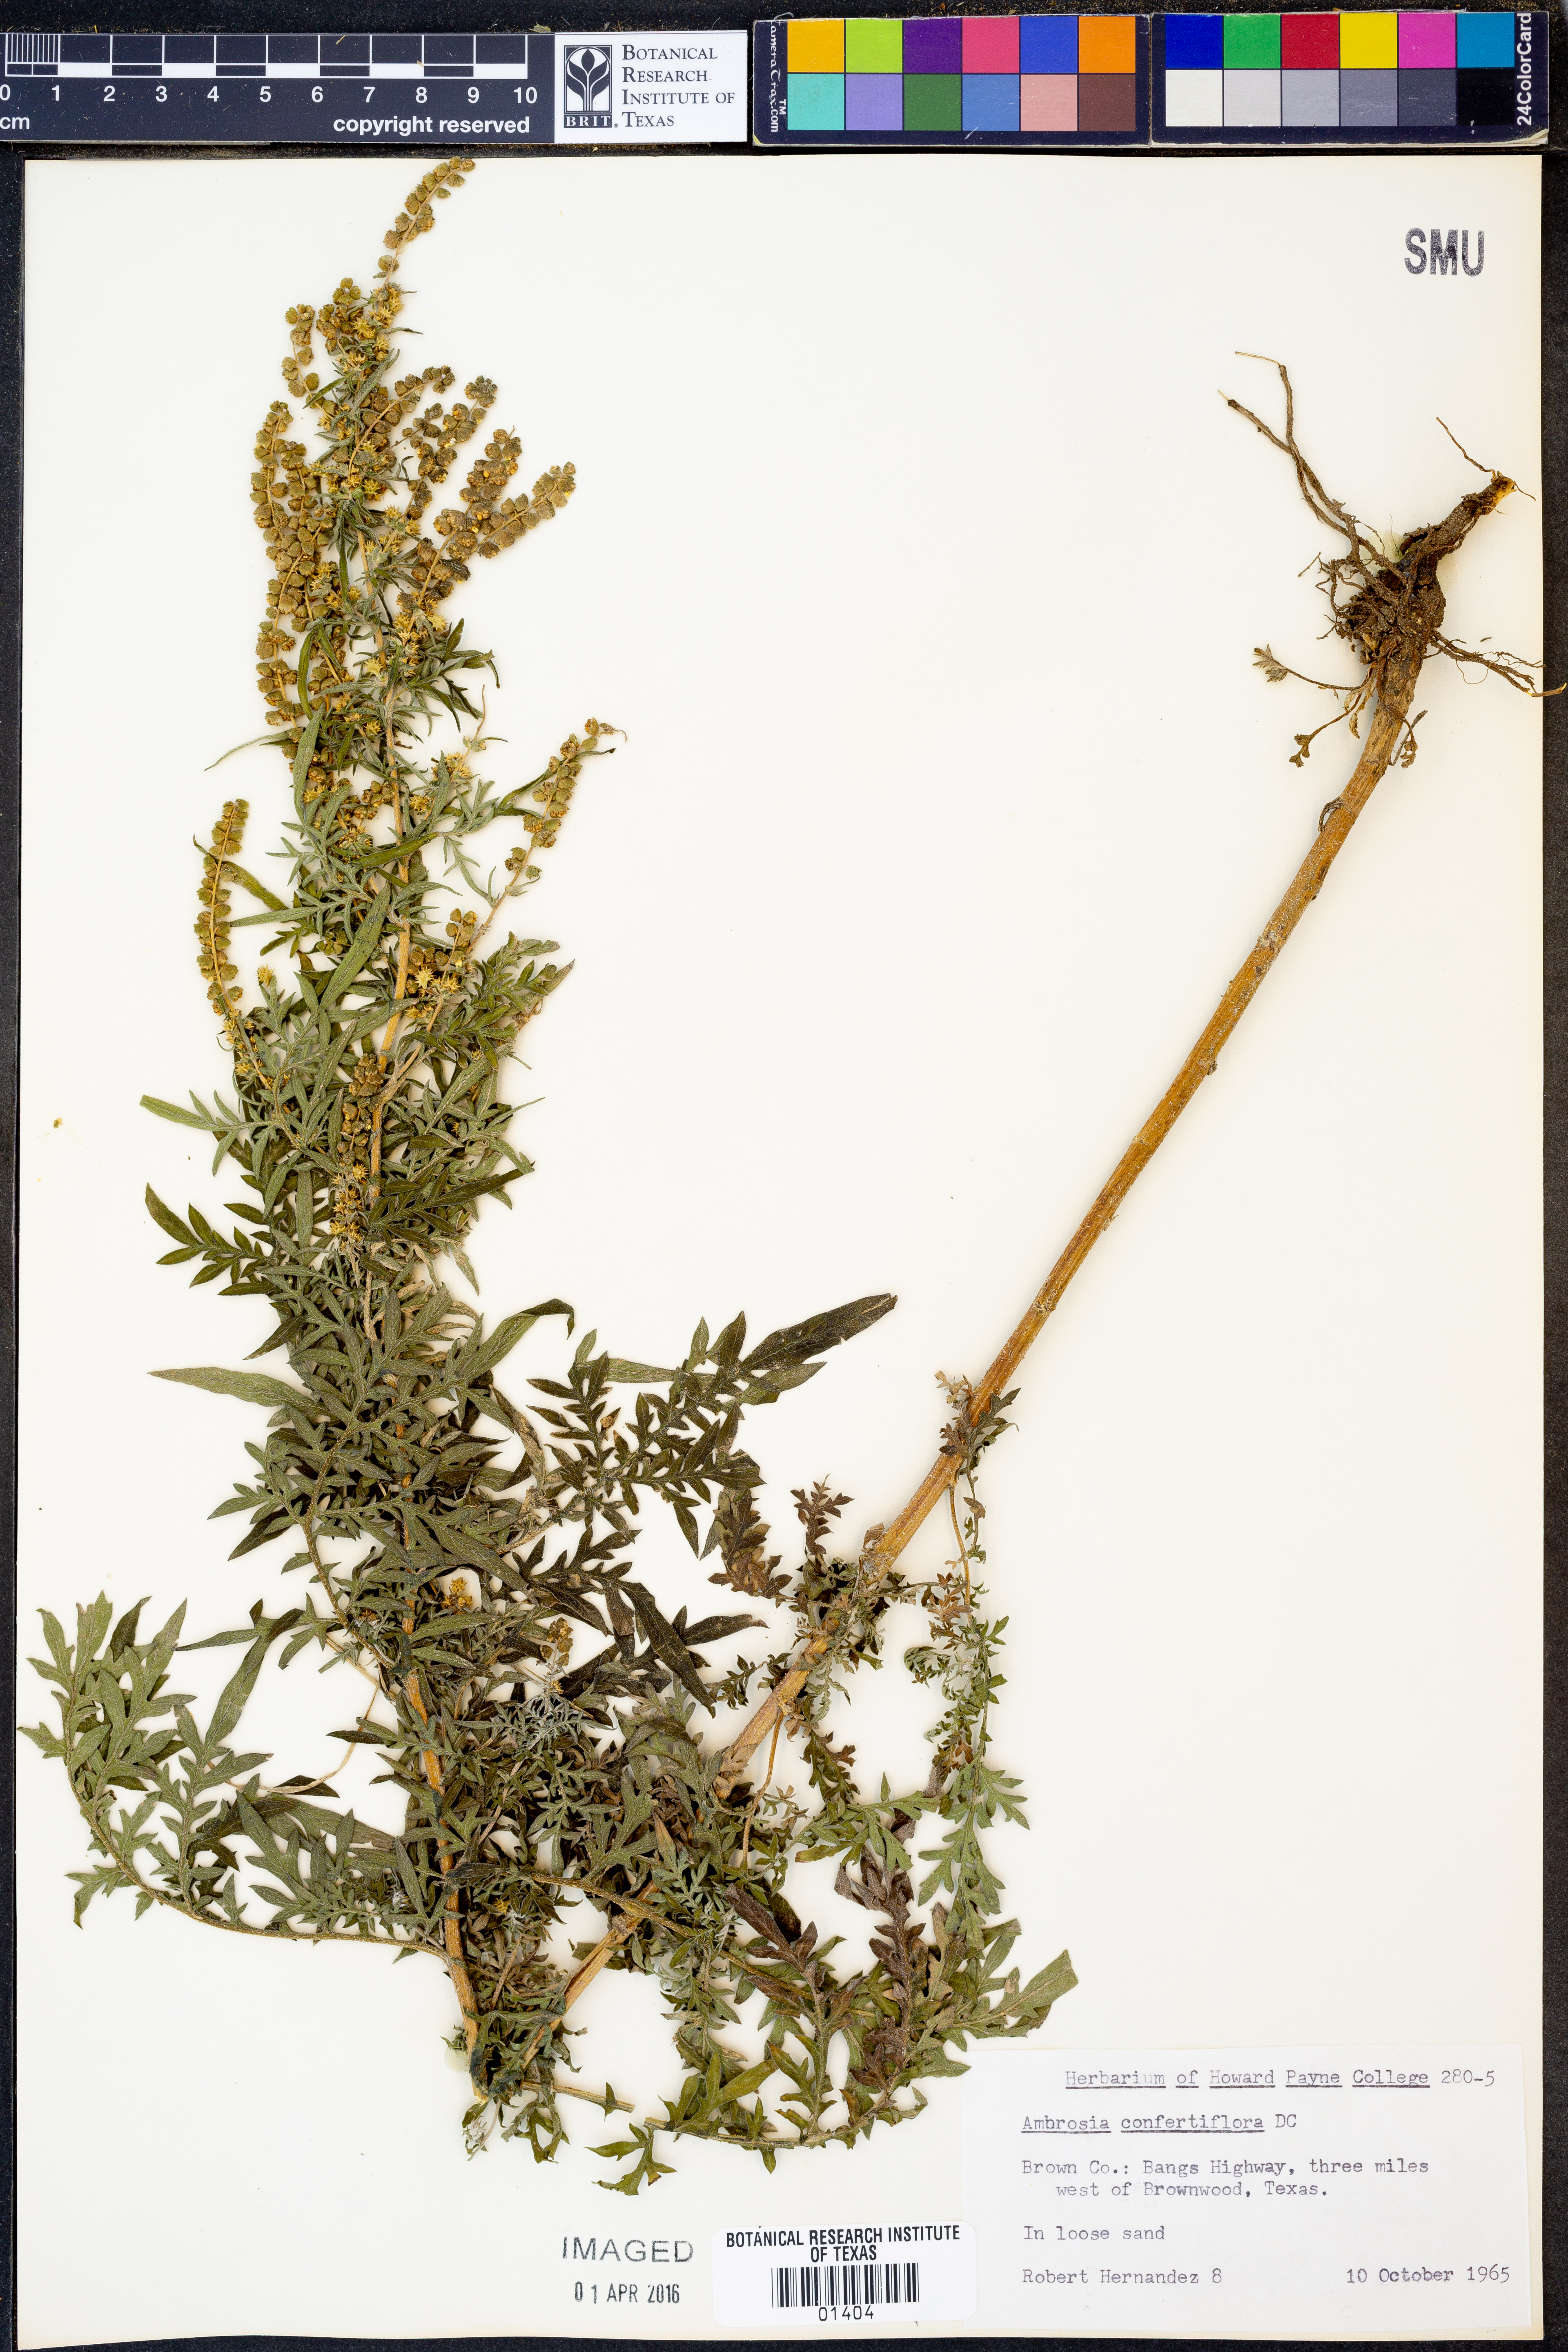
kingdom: Plantae
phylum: Tracheophyta
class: Magnoliopsida
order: Asterales
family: Asteraceae
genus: Ambrosia
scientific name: Ambrosia confertiflora
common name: Bur ragweed
